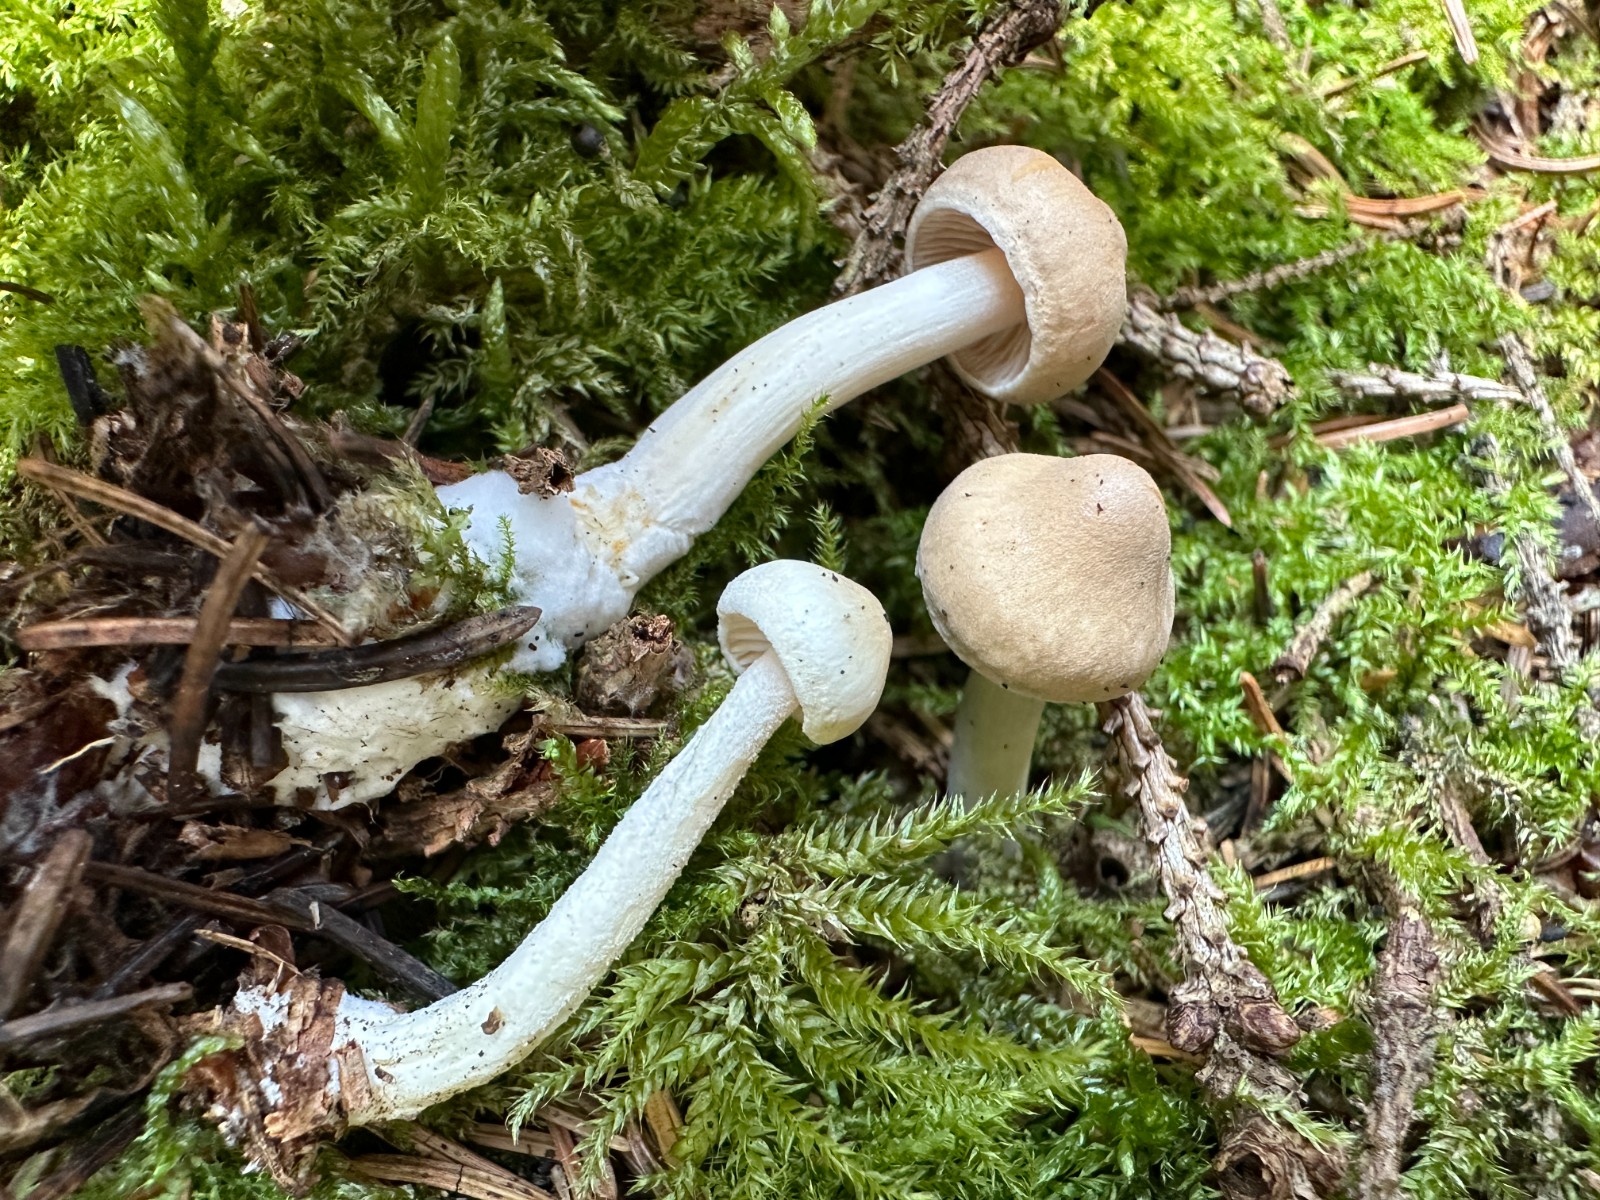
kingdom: Fungi
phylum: Basidiomycota
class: Agaricomycetes
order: Agaricales
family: Tricholomataceae
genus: Tricholoma
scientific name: Tricholoma inamoenum
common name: højstokket ridderhat
